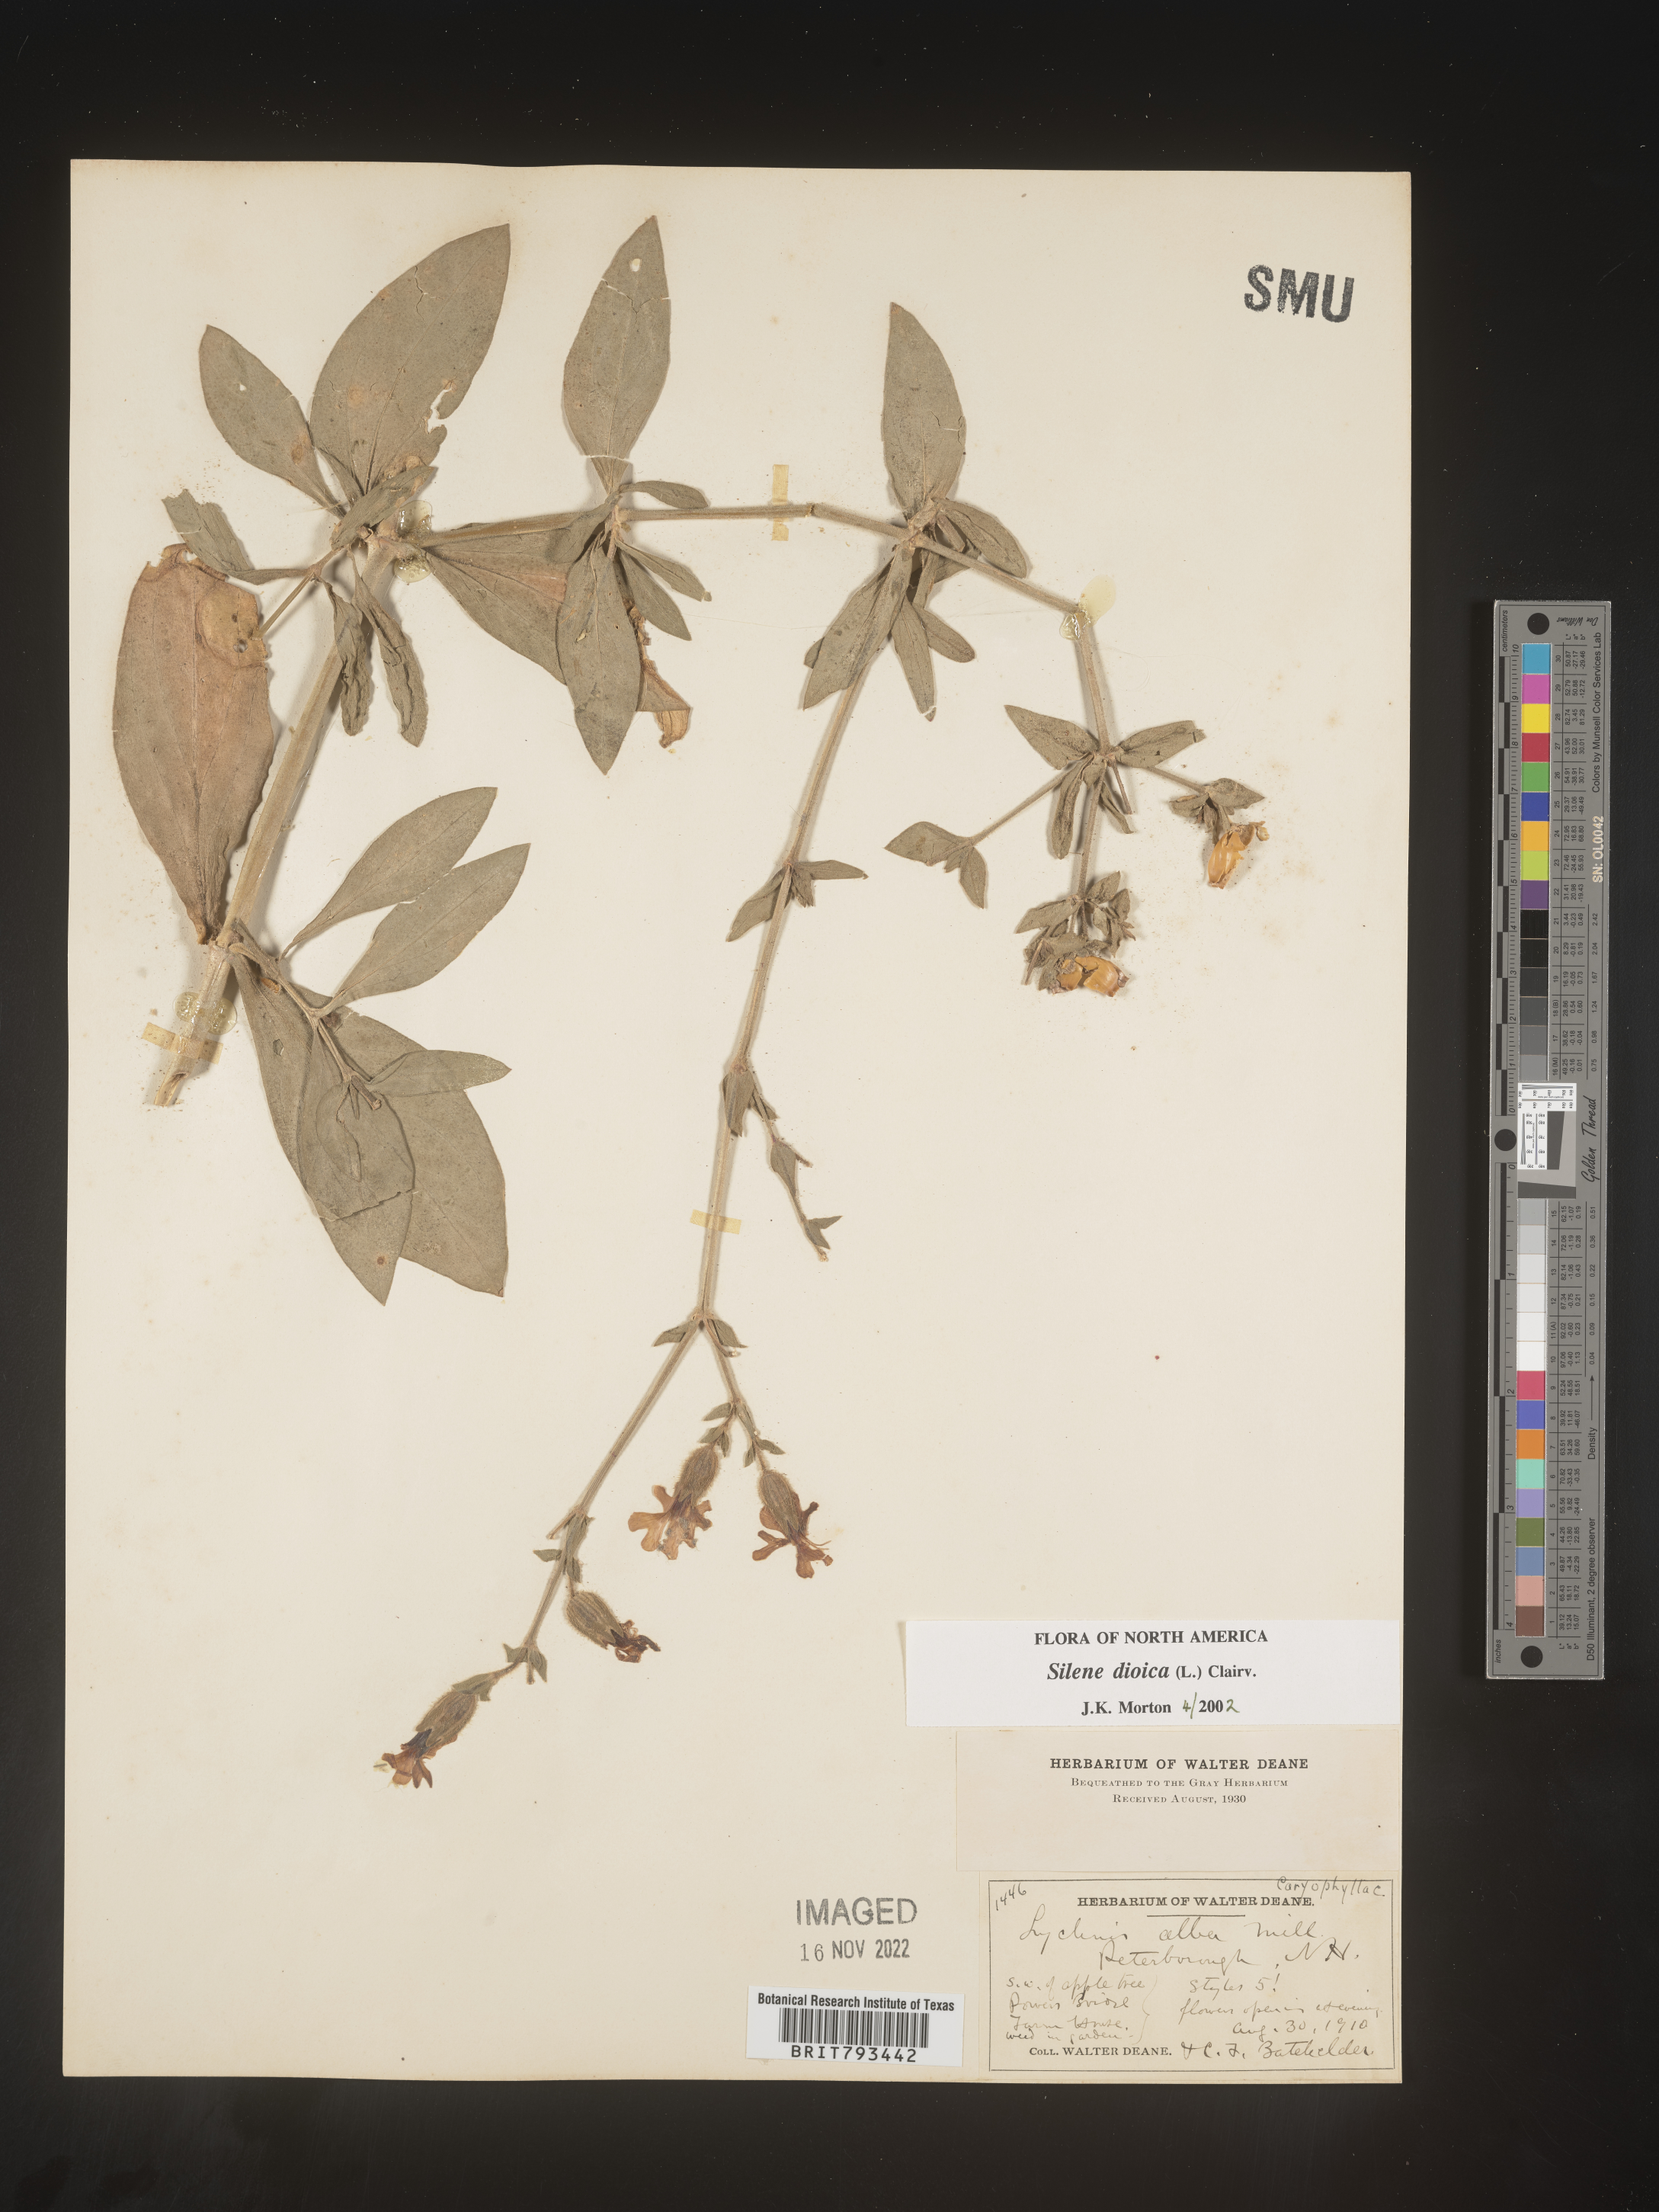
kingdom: Plantae
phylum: Tracheophyta
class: Magnoliopsida
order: Caryophyllales
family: Caryophyllaceae
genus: Silene
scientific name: Silene dioica
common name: Red campion
